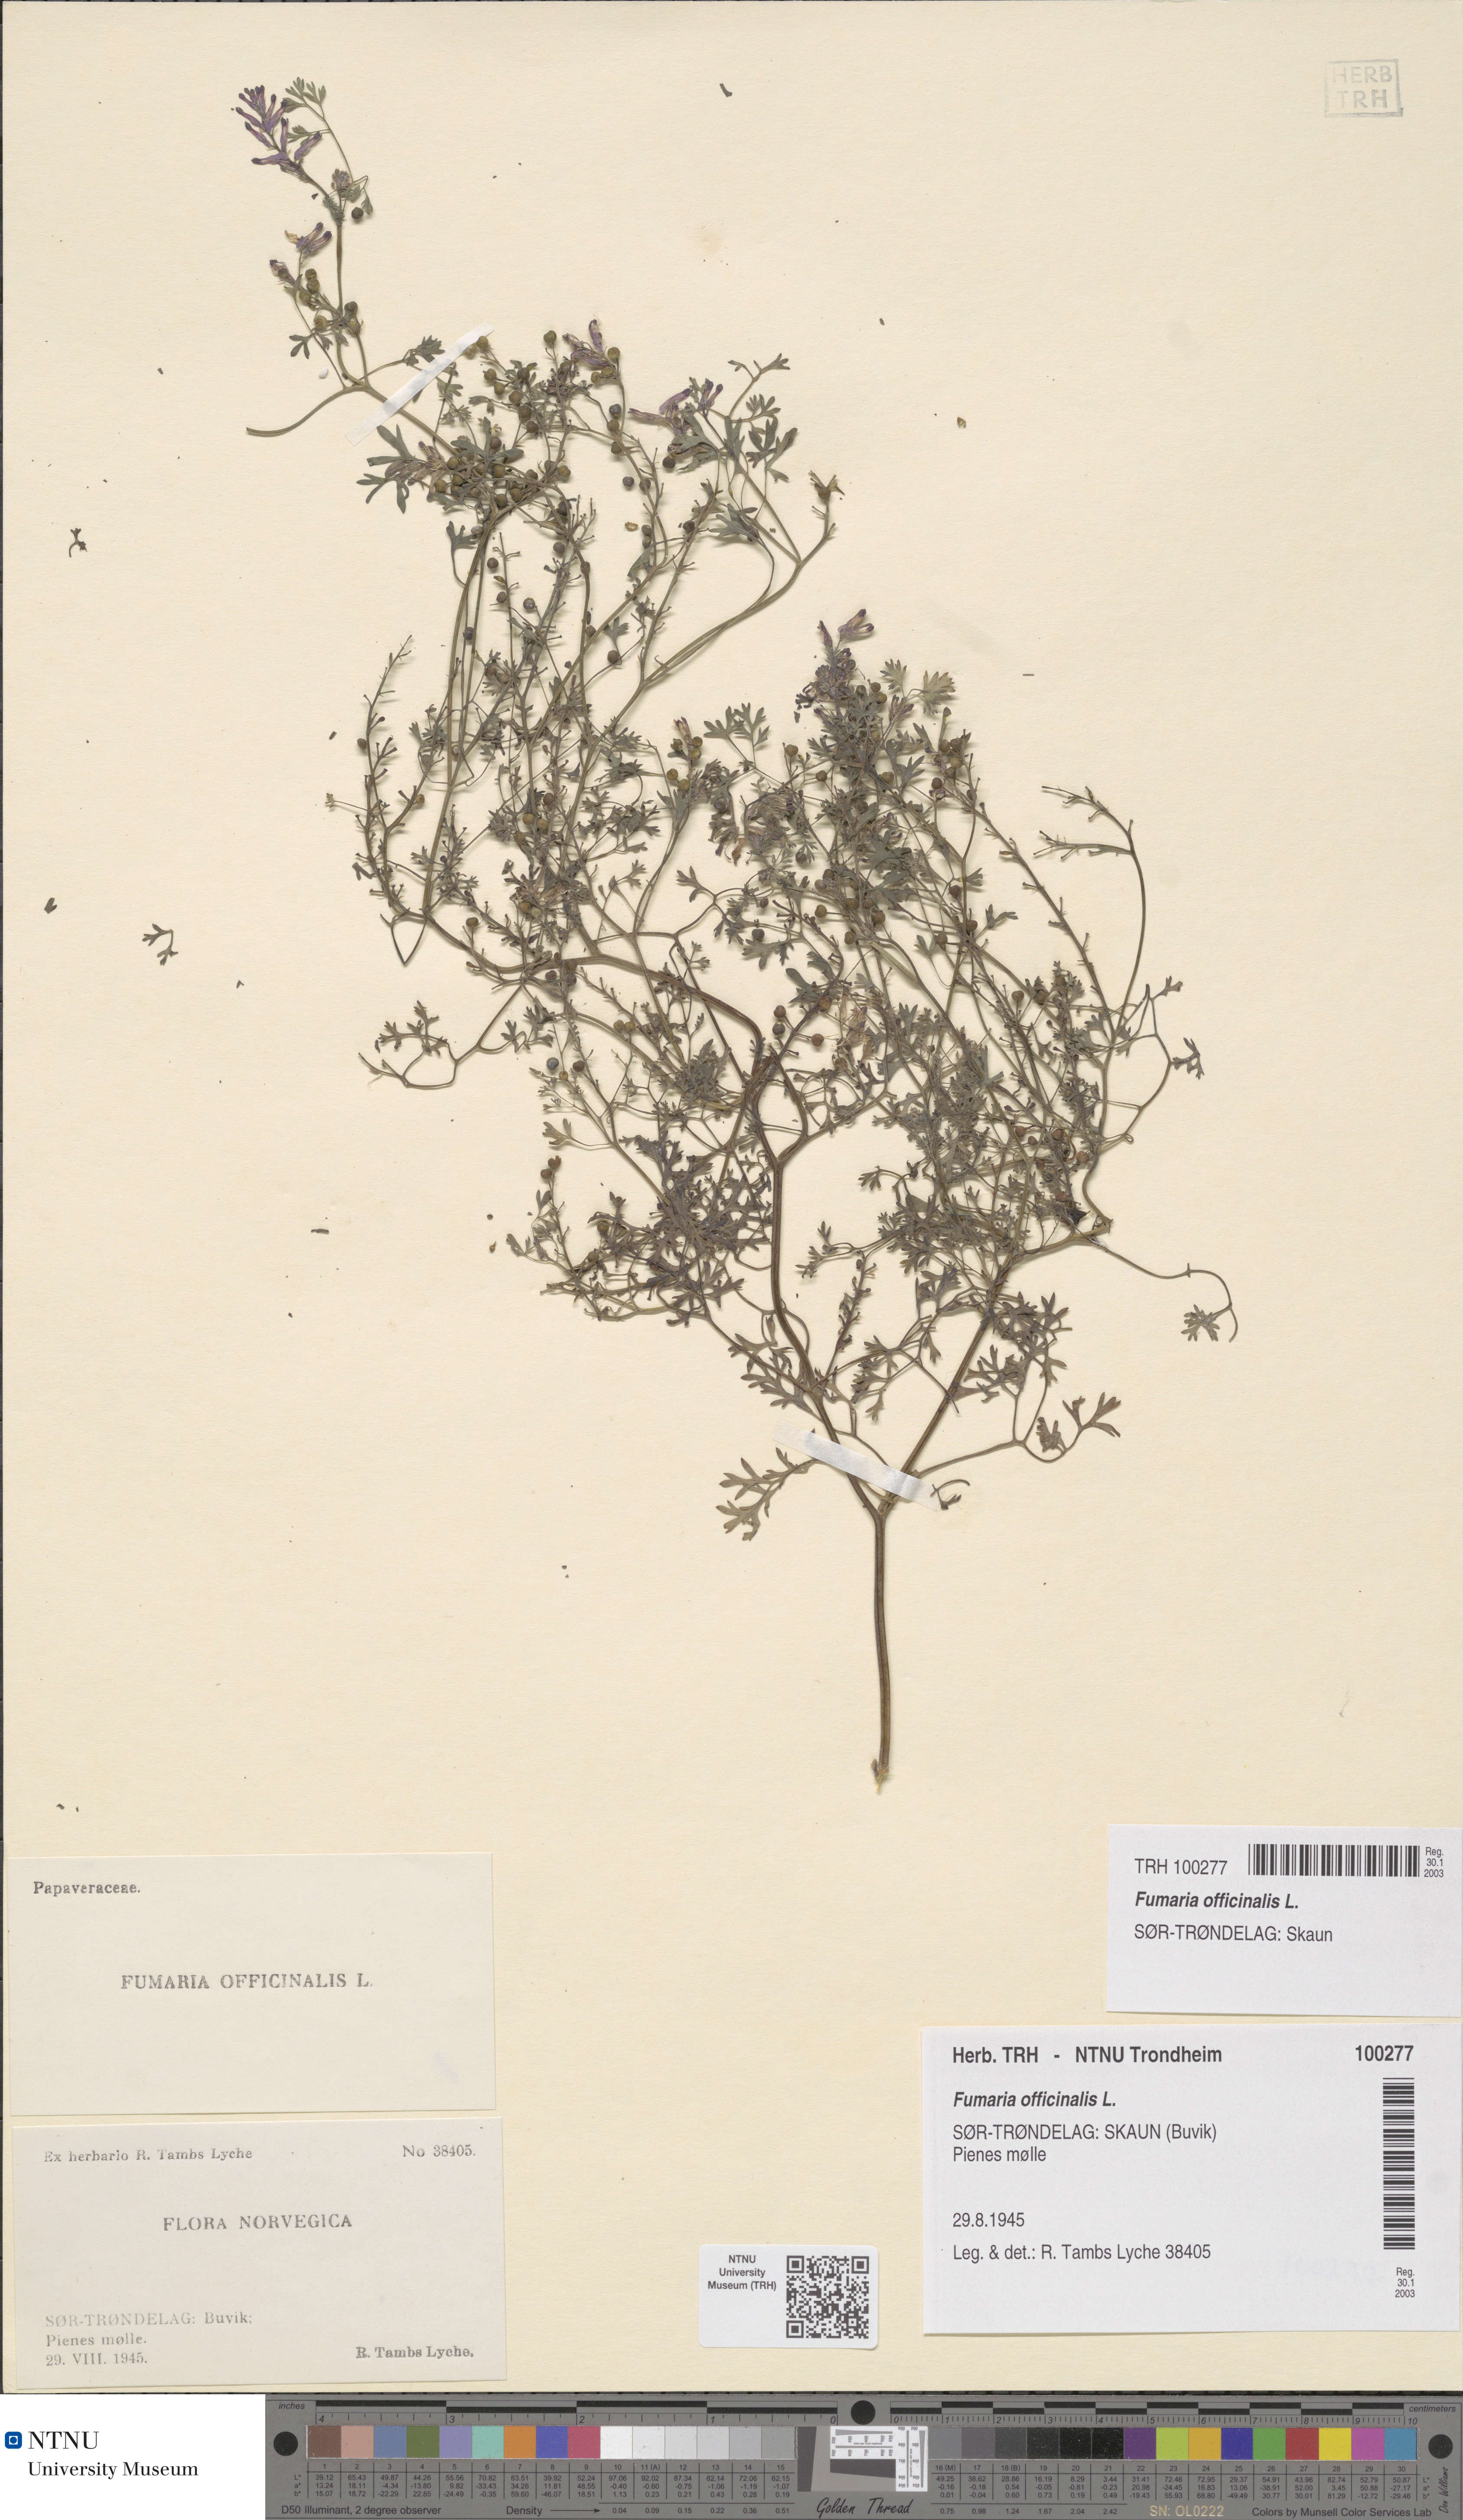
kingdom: Plantae
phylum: Tracheophyta
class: Magnoliopsida
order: Ranunculales
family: Papaveraceae
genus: Fumaria
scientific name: Fumaria officinalis
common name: Common fumitory
